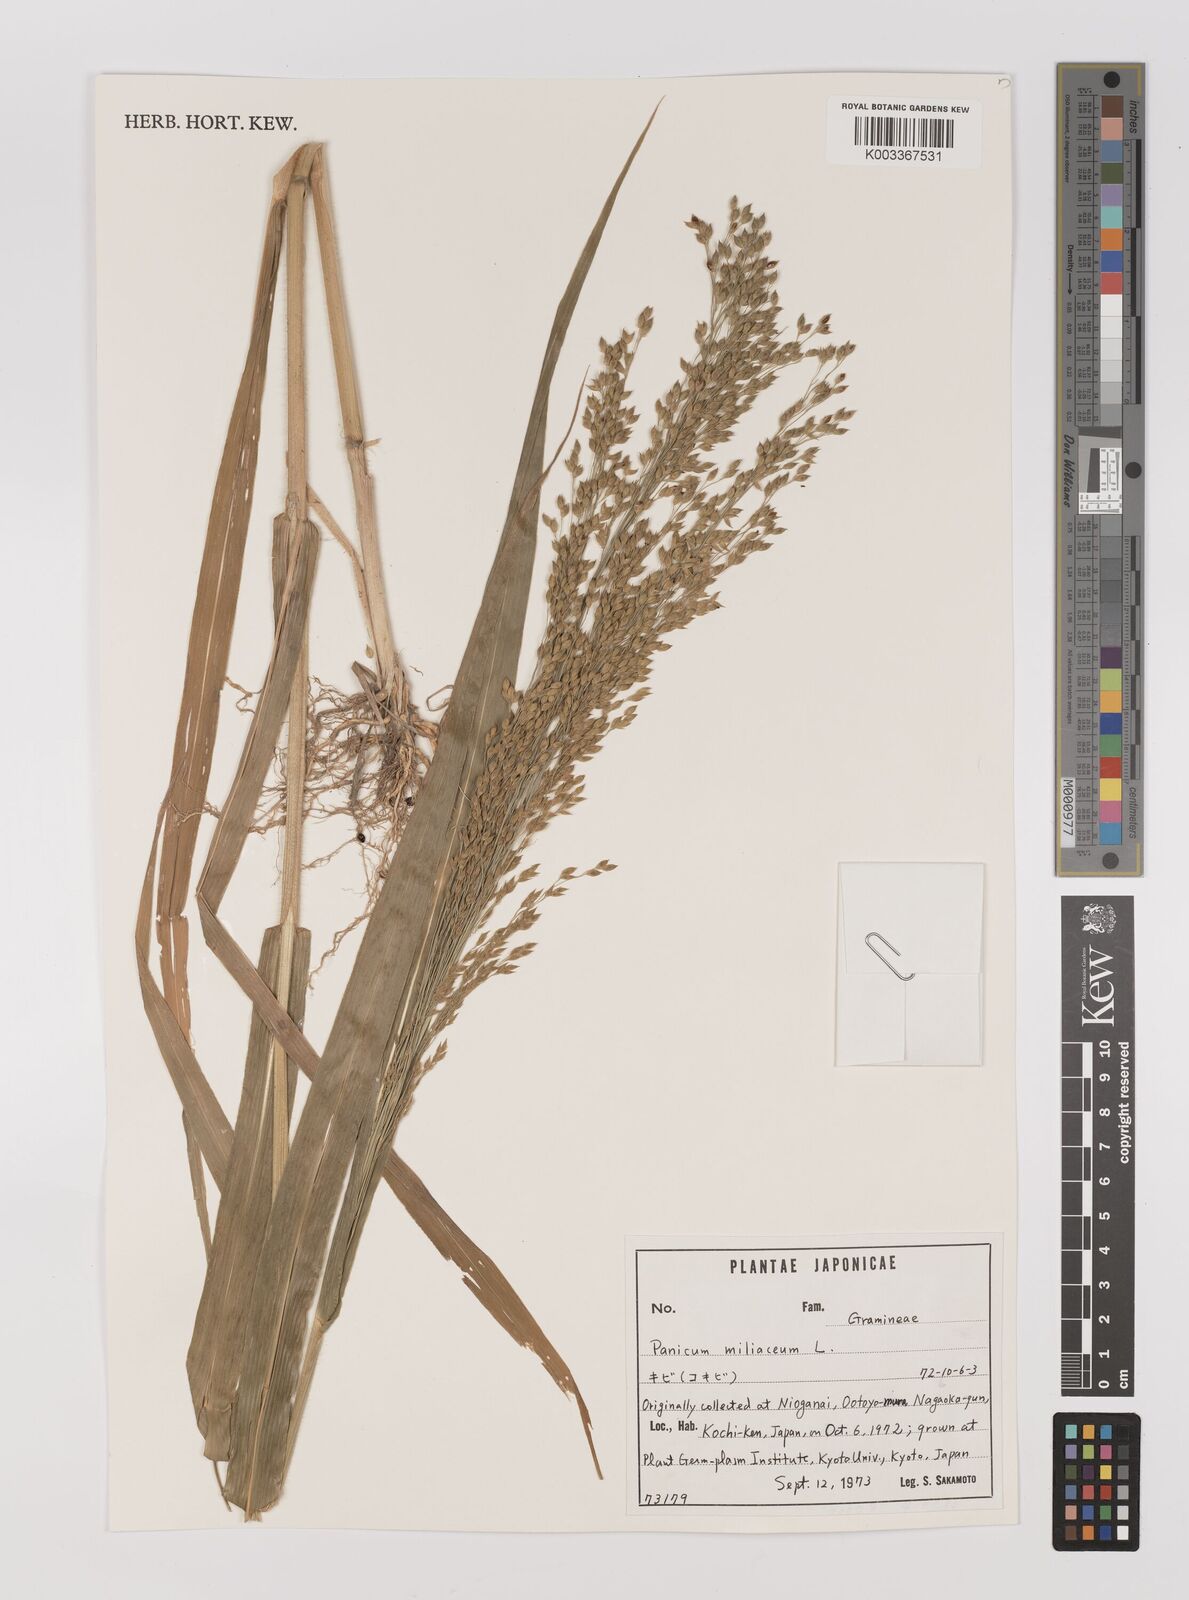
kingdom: Plantae
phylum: Tracheophyta
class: Liliopsida
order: Poales
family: Poaceae
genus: Panicum
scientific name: Panicum miliaceum
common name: Common millet
